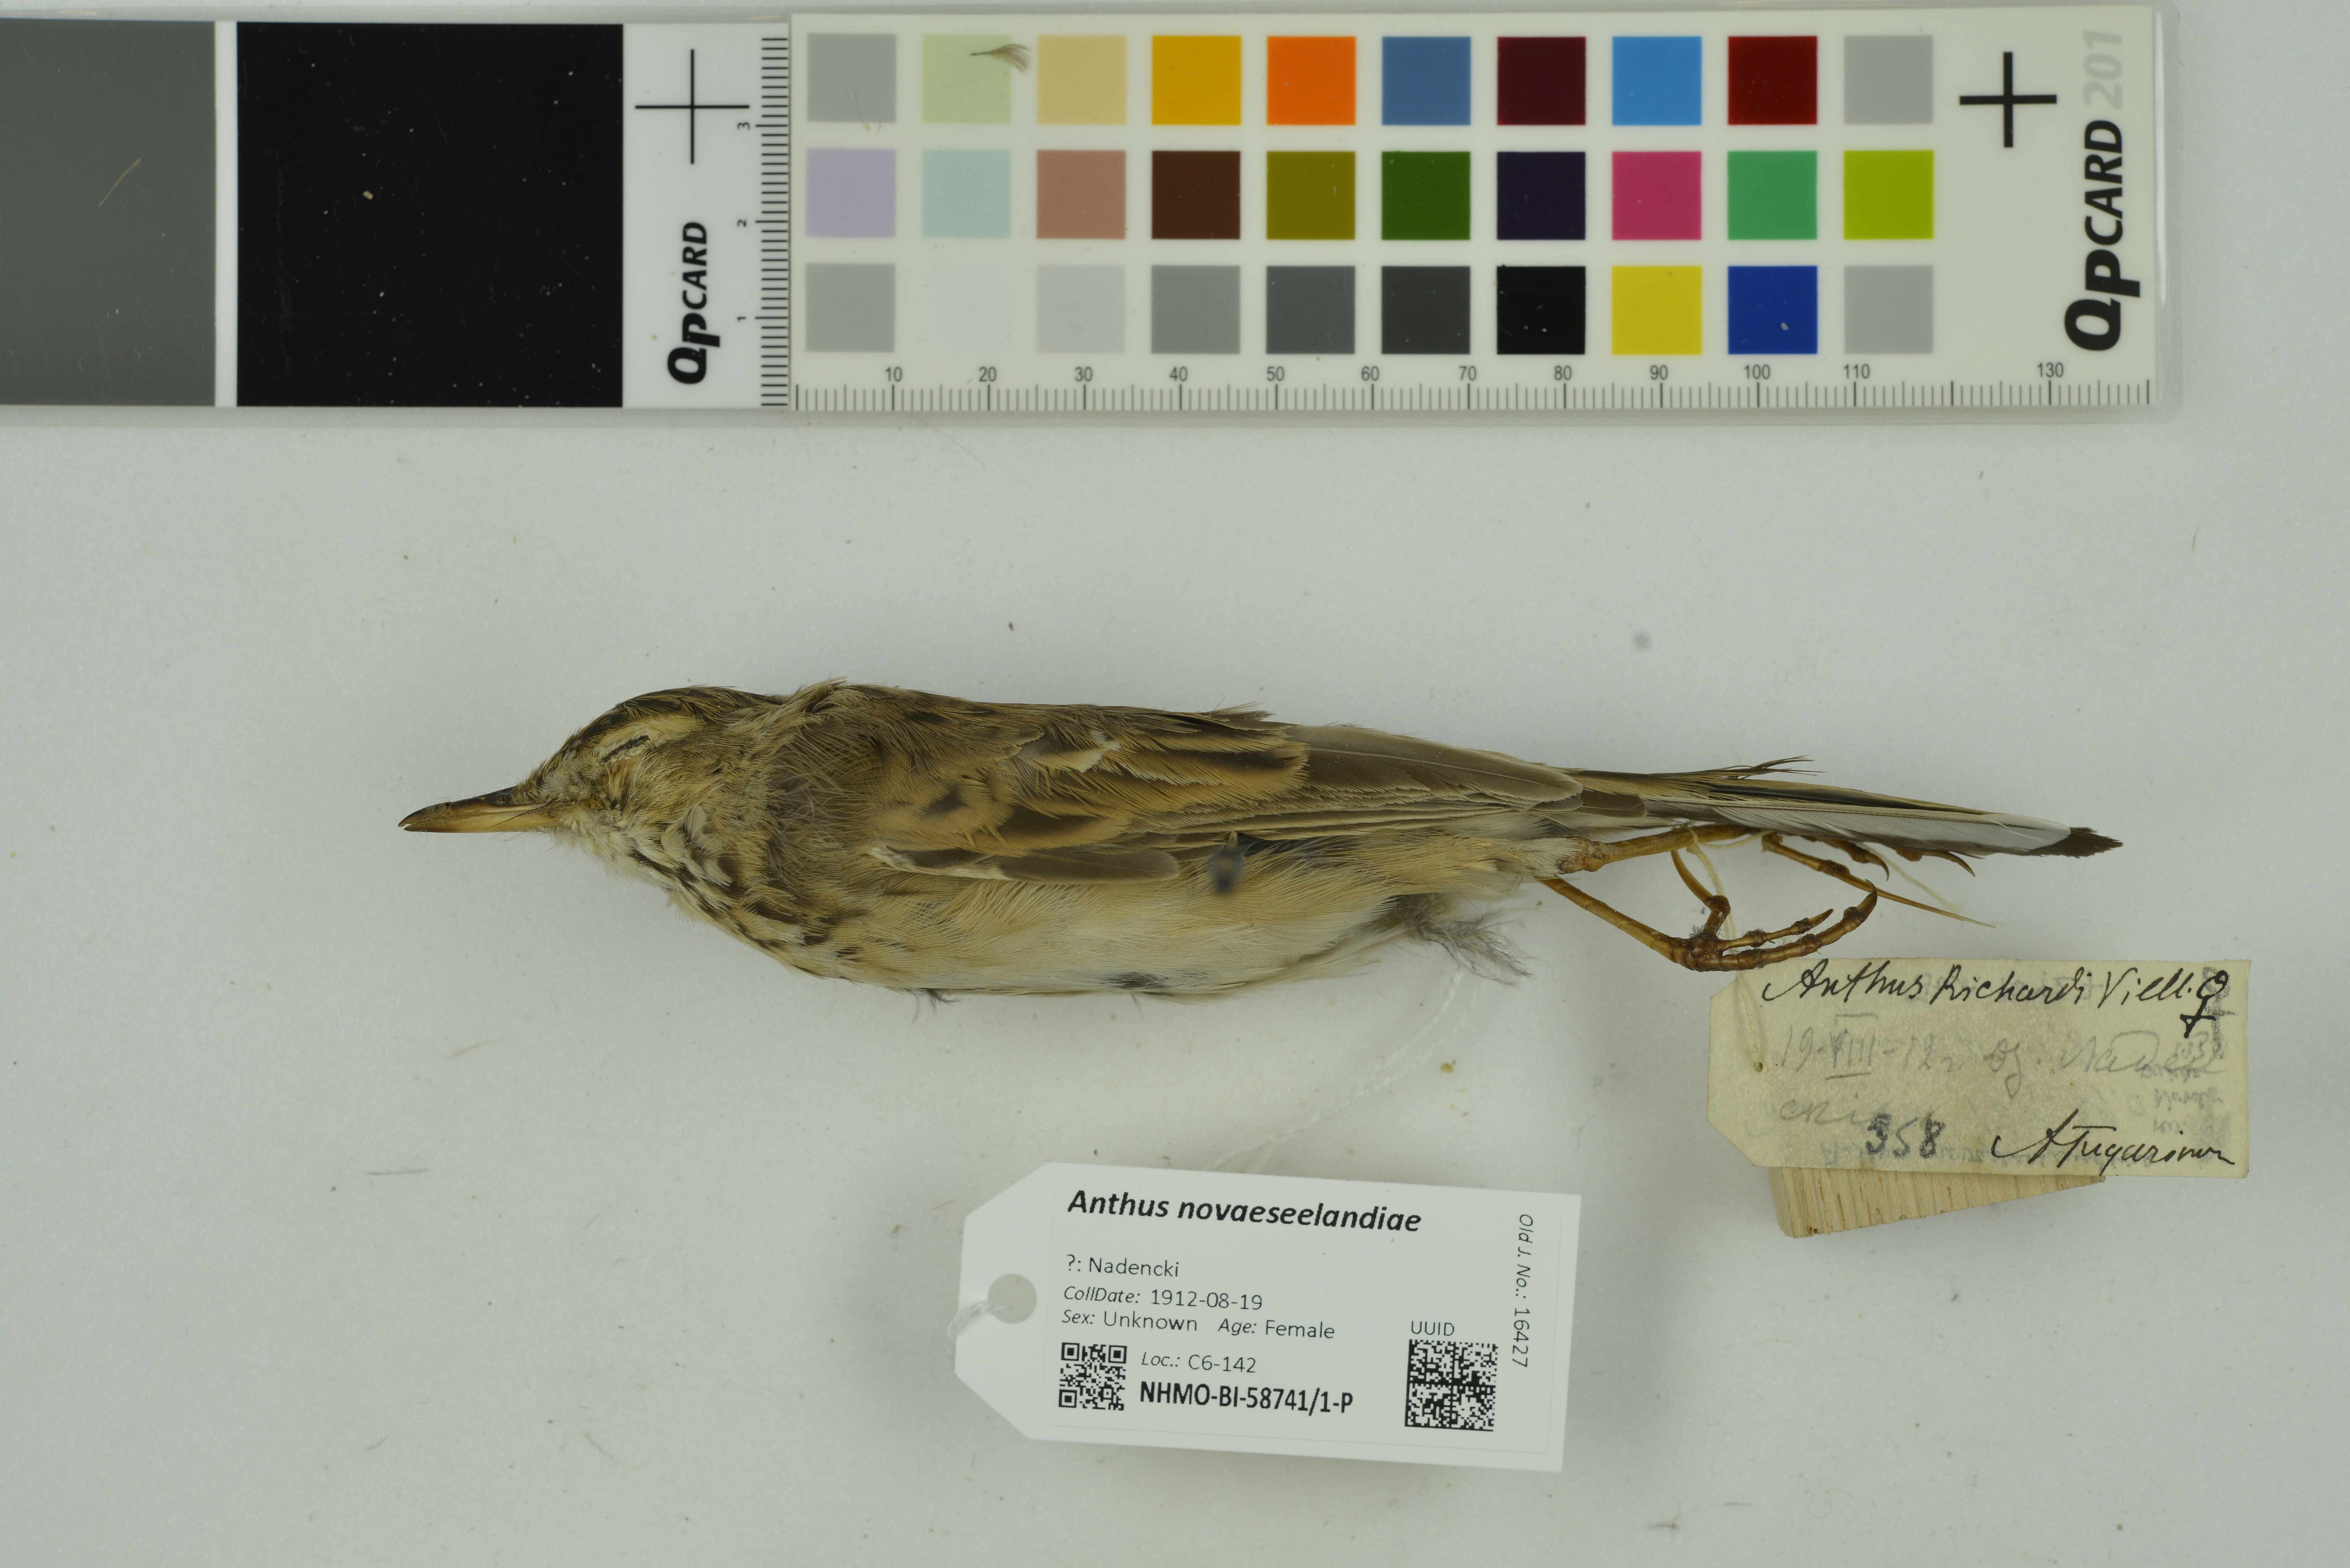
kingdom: Animalia
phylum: Chordata
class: Aves
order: Passeriformes
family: Motacillidae
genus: Anthus
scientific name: Anthus novaeseelandiae
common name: New zealand pipit
